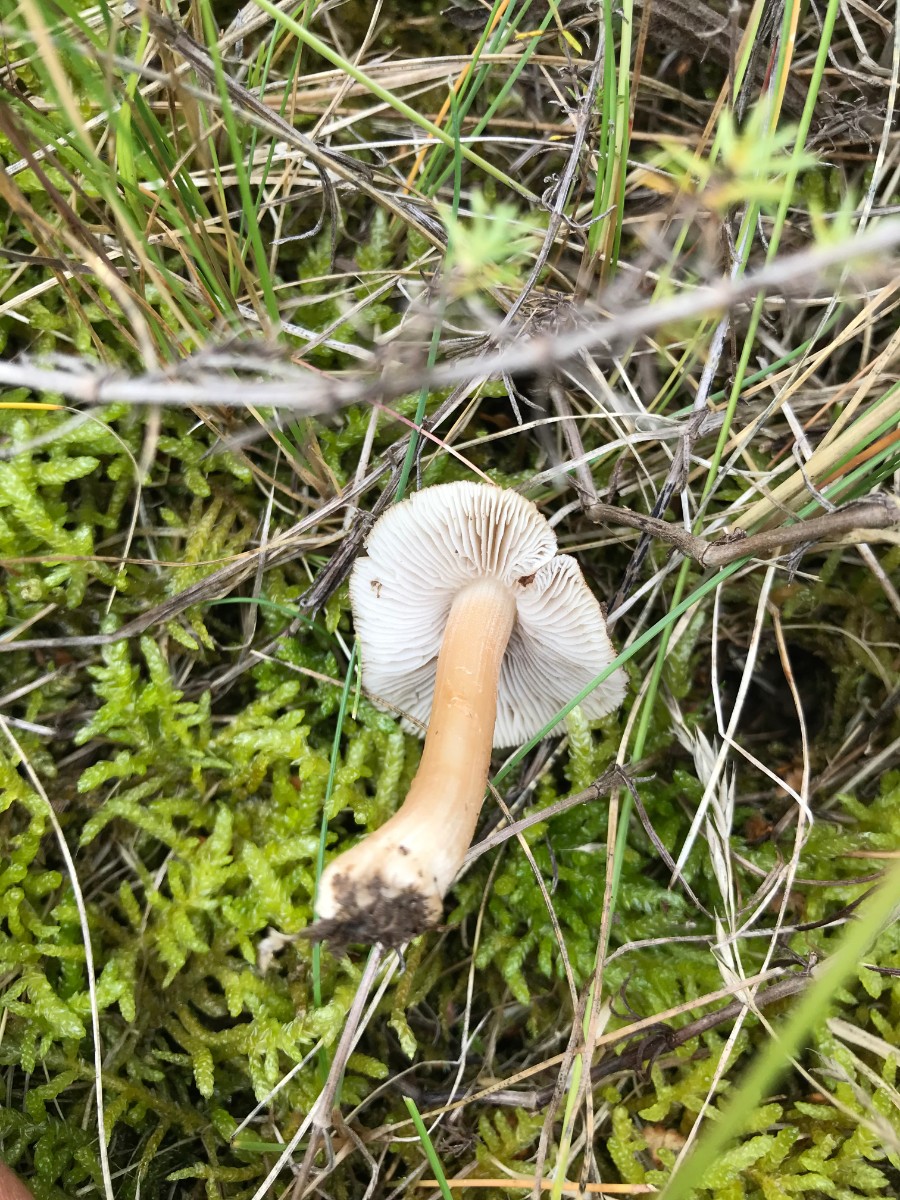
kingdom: Fungi
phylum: Basidiomycota
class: Agaricomycetes
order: Agaricales
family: Inocybaceae
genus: Inocybe
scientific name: Inocybe
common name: trævlhat
